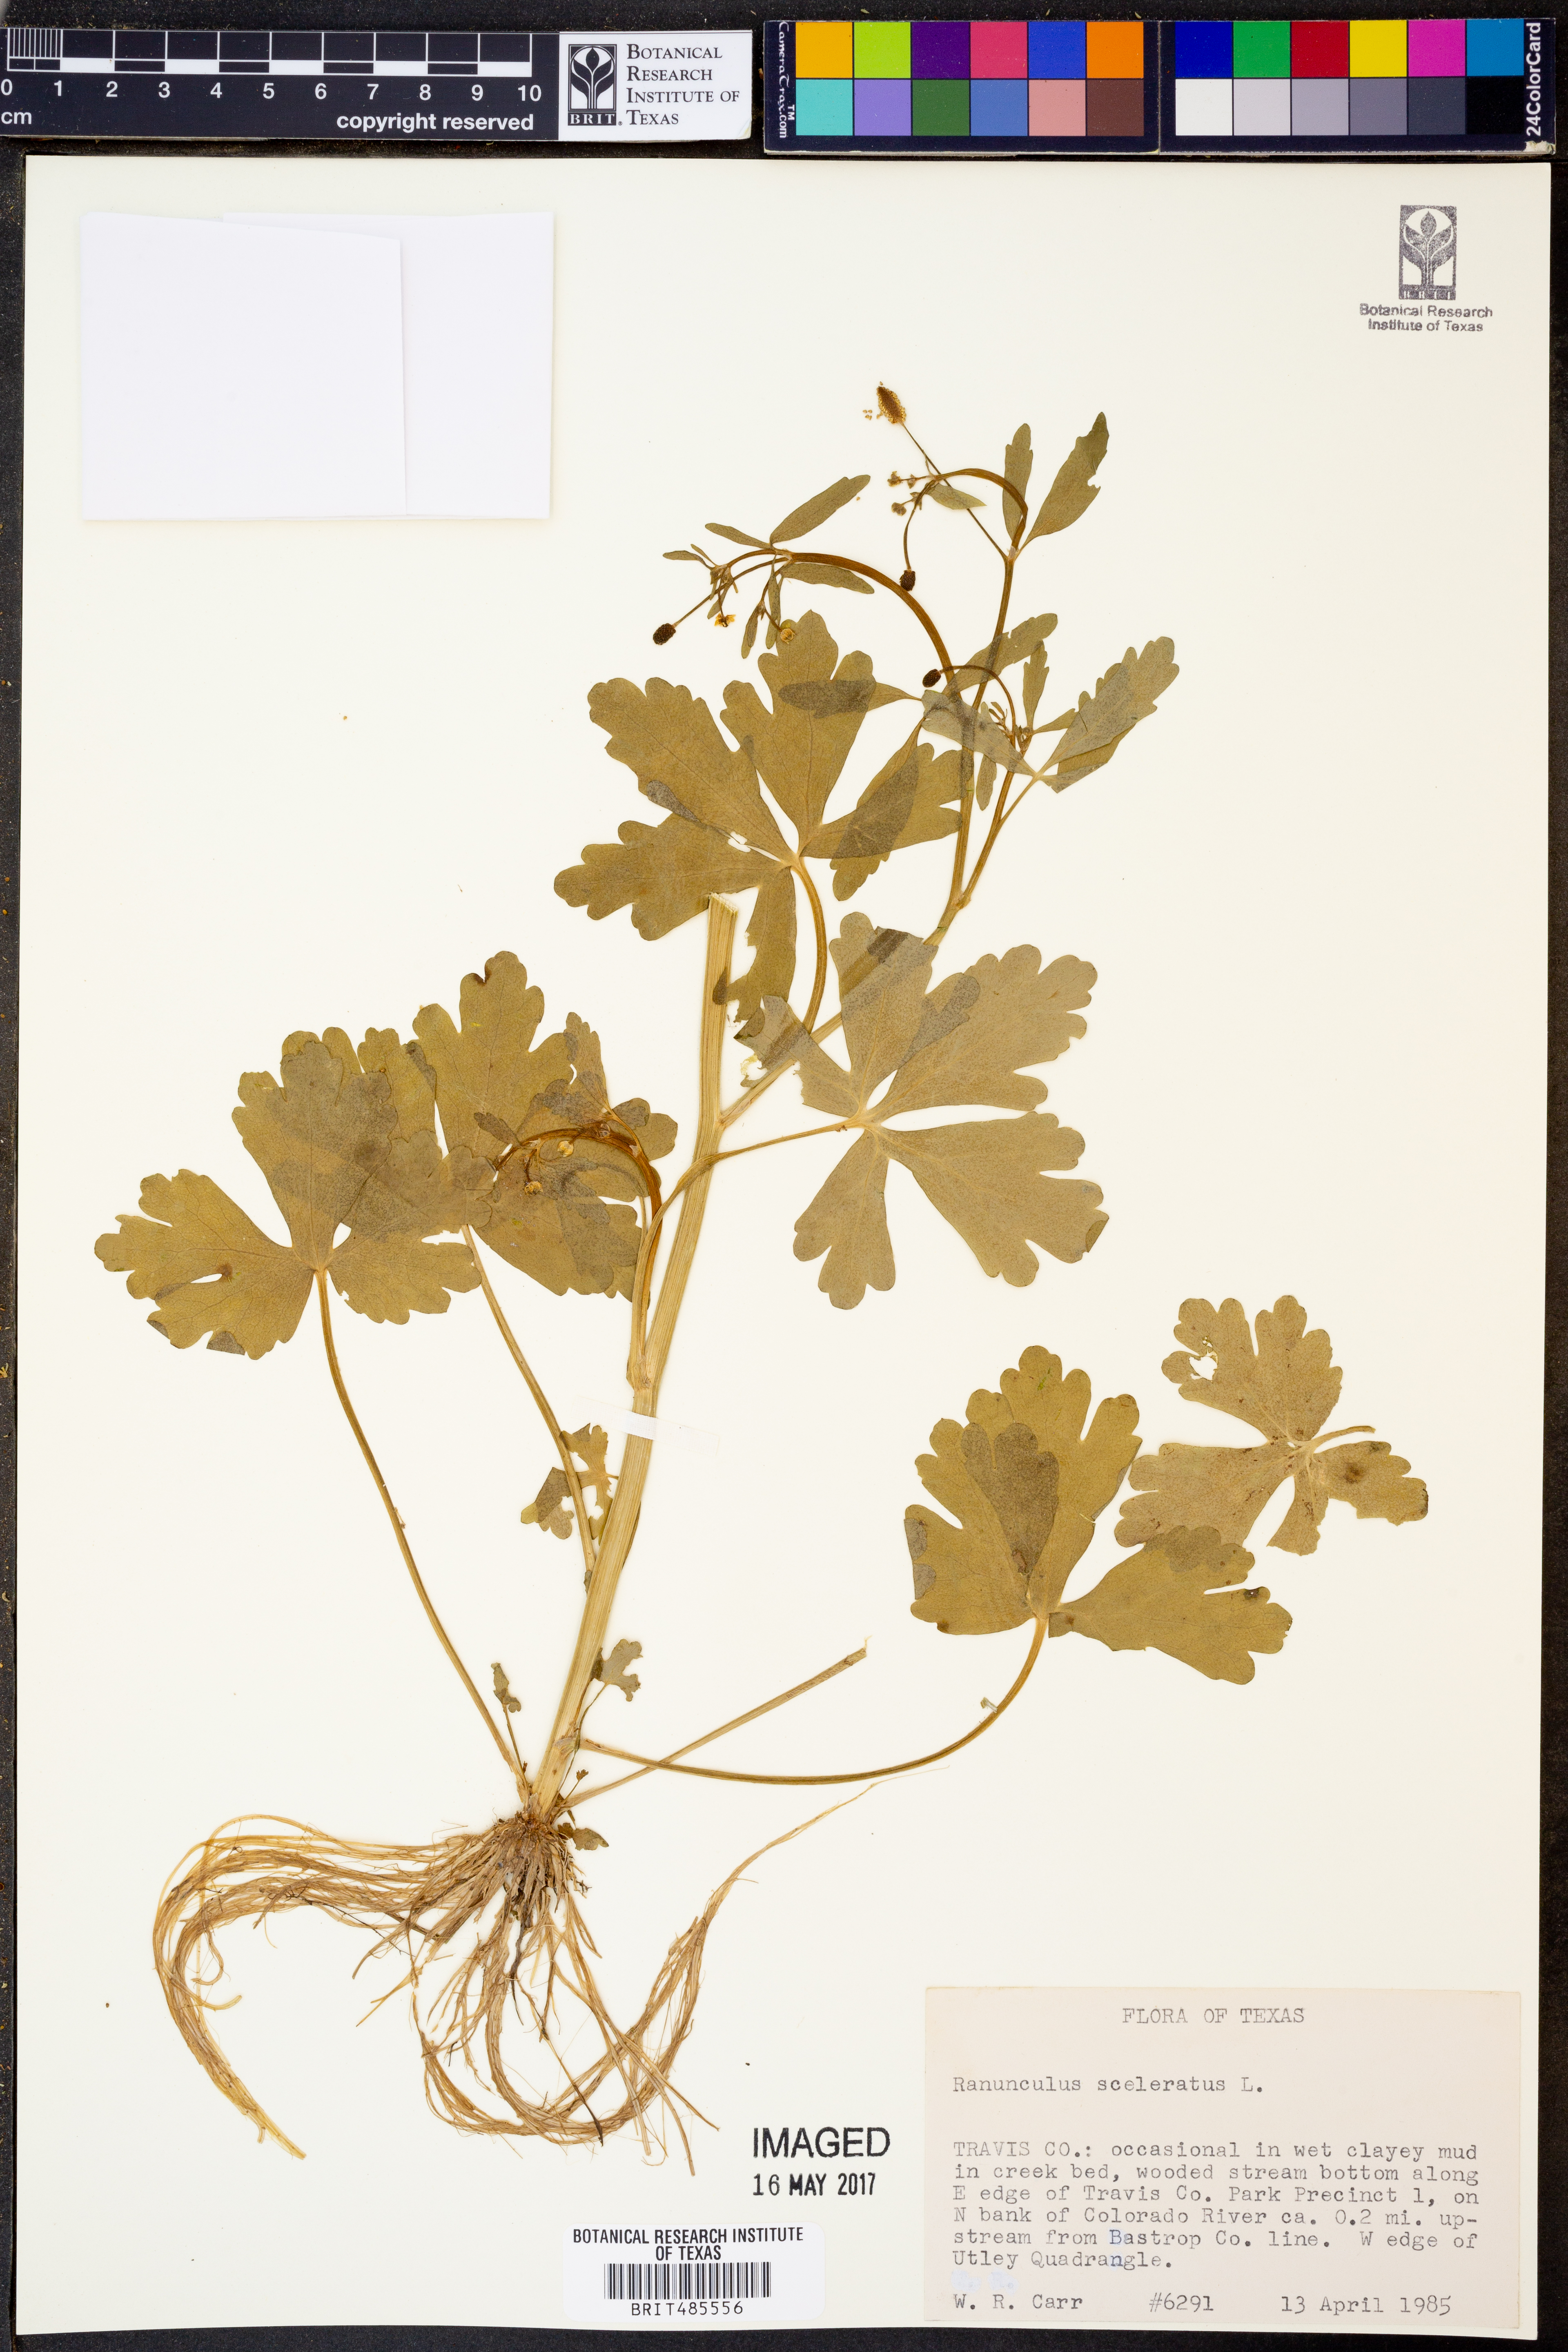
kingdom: Plantae
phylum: Tracheophyta
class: Magnoliopsida
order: Ranunculales
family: Ranunculaceae
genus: Ranunculus
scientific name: Ranunculus sceleratus
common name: Celery-leaved buttercup
